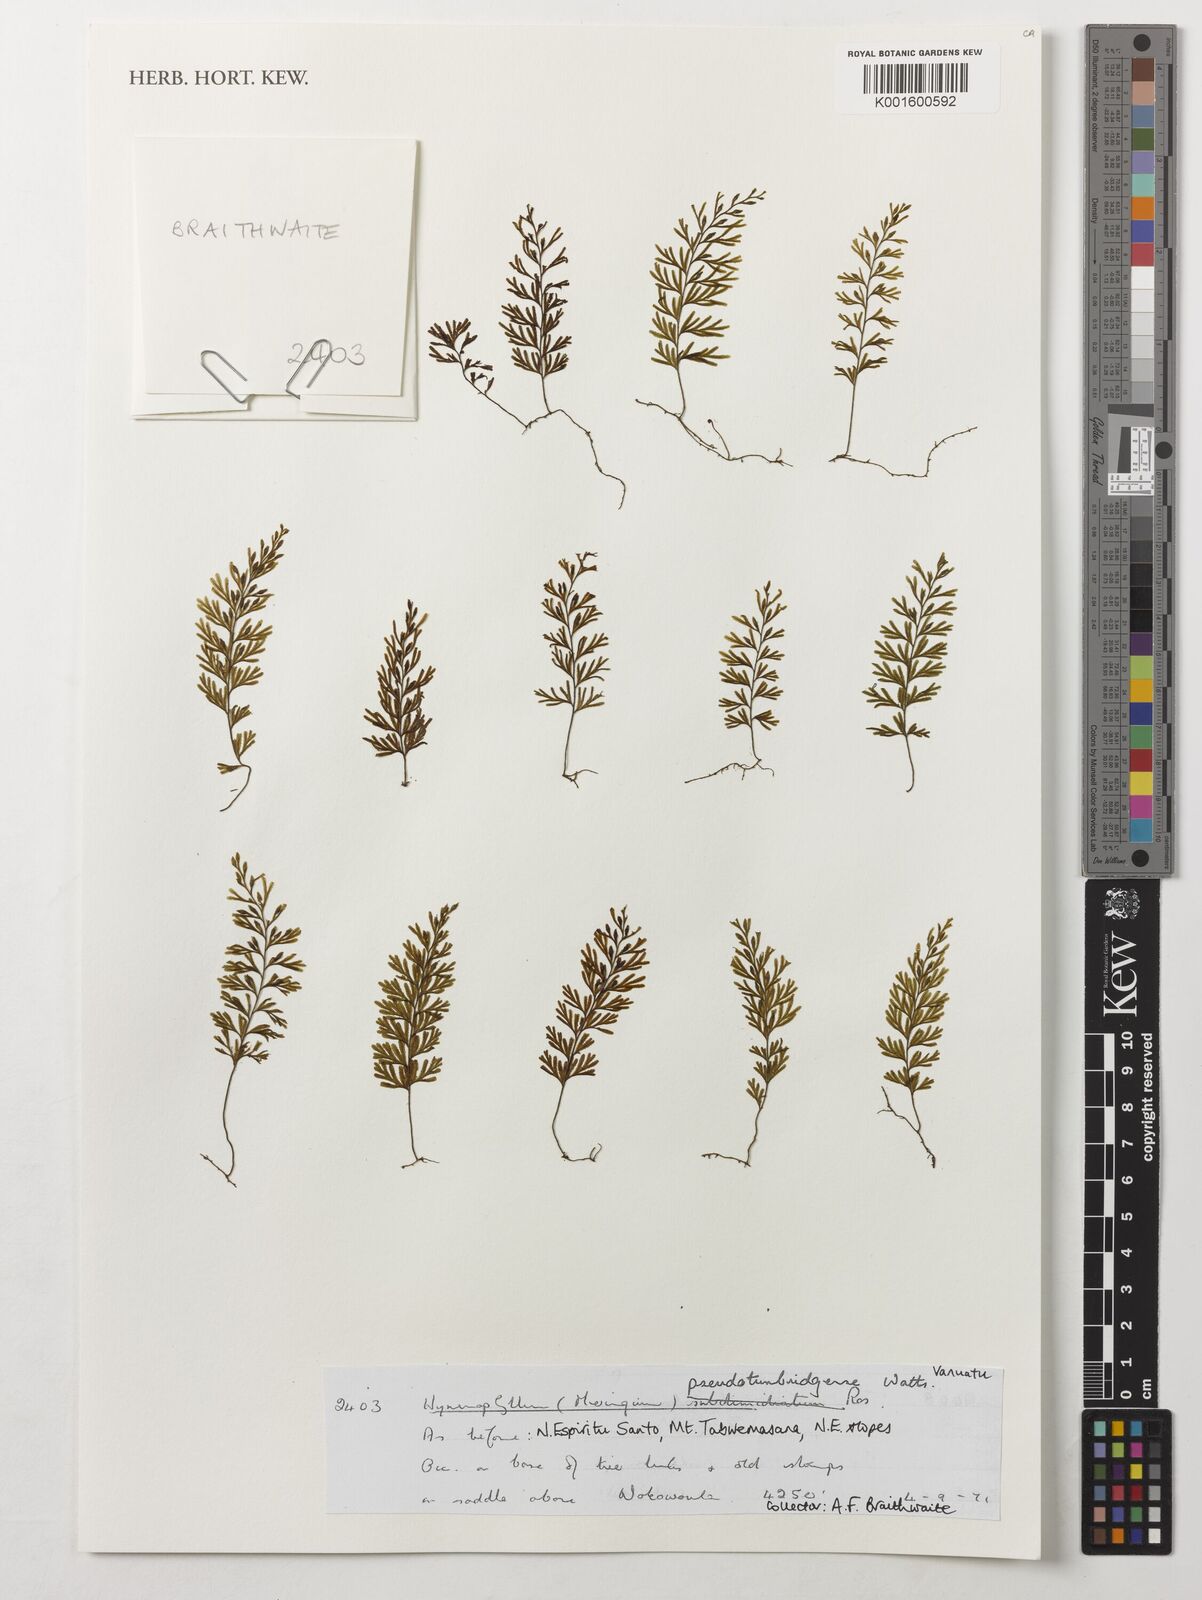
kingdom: Plantae
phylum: Tracheophyta
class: Polypodiopsida
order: Hymenophyllales
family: Hymenophyllaceae
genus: Hymenophyllum
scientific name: Hymenophyllum holochilum
